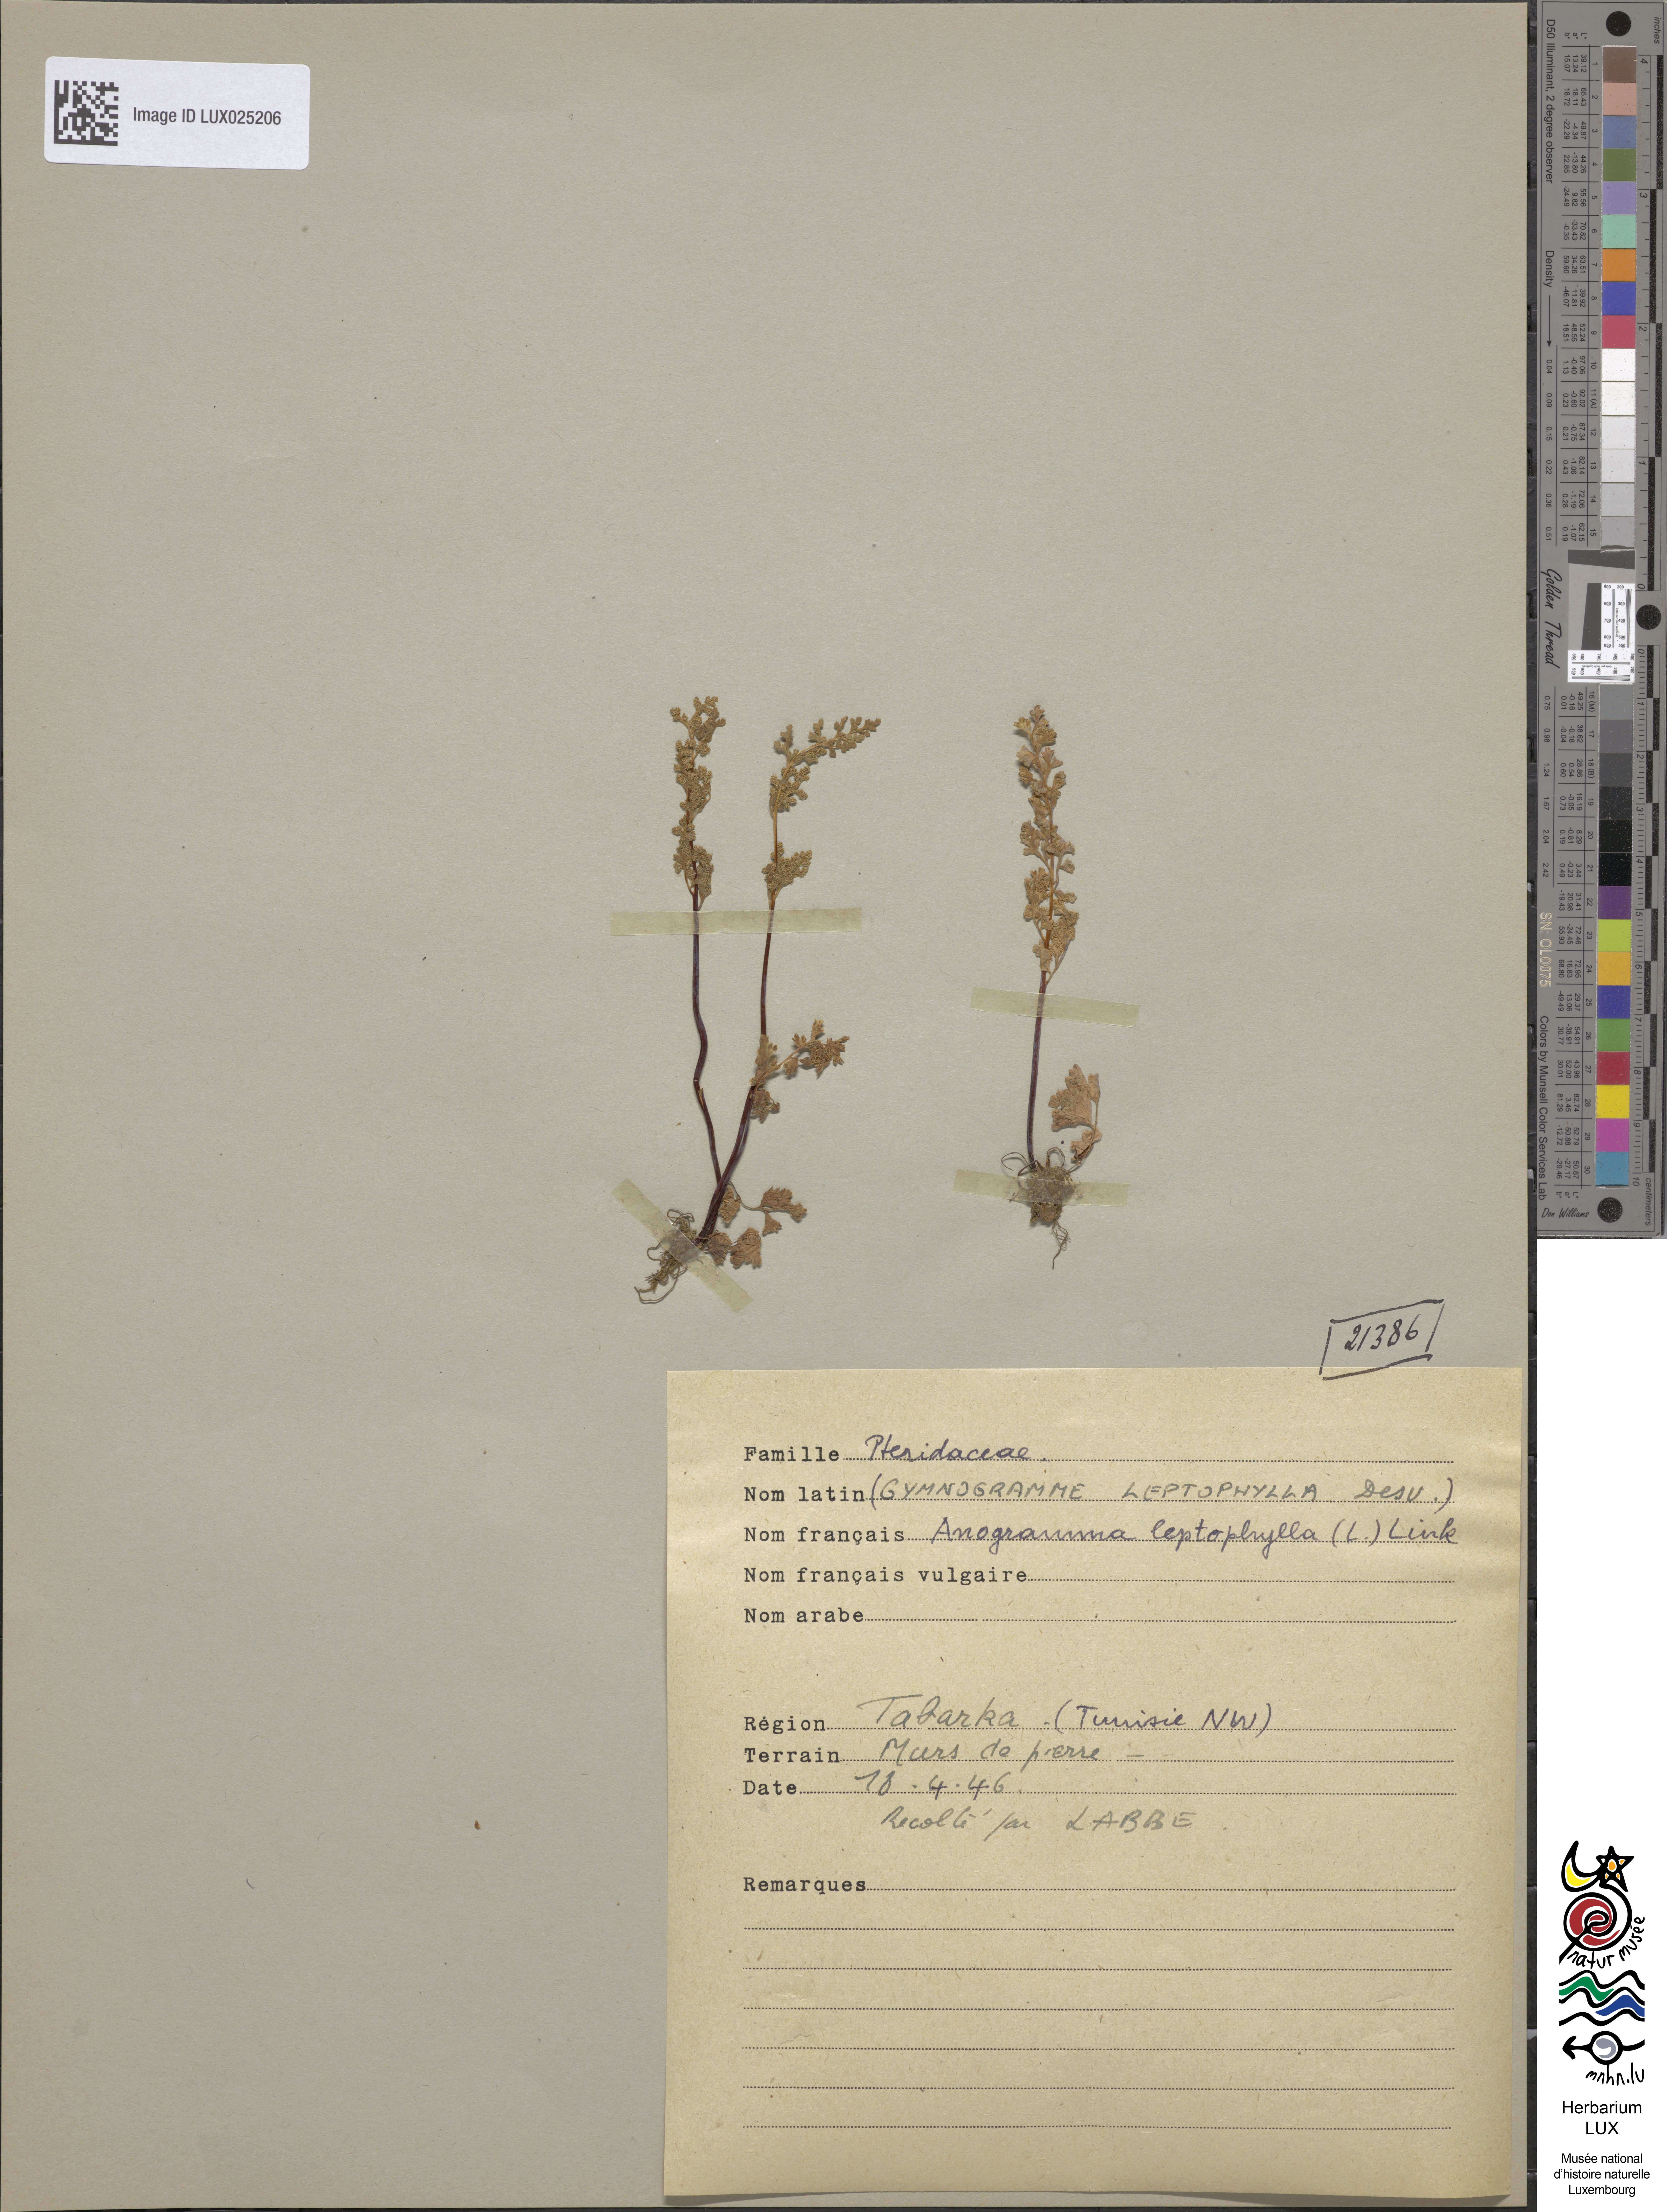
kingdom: Plantae
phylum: Tracheophyta
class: Polypodiopsida
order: Polypodiales
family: Pteridaceae
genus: Anogramma
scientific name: Anogramma leptophylla
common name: Jersey fern
